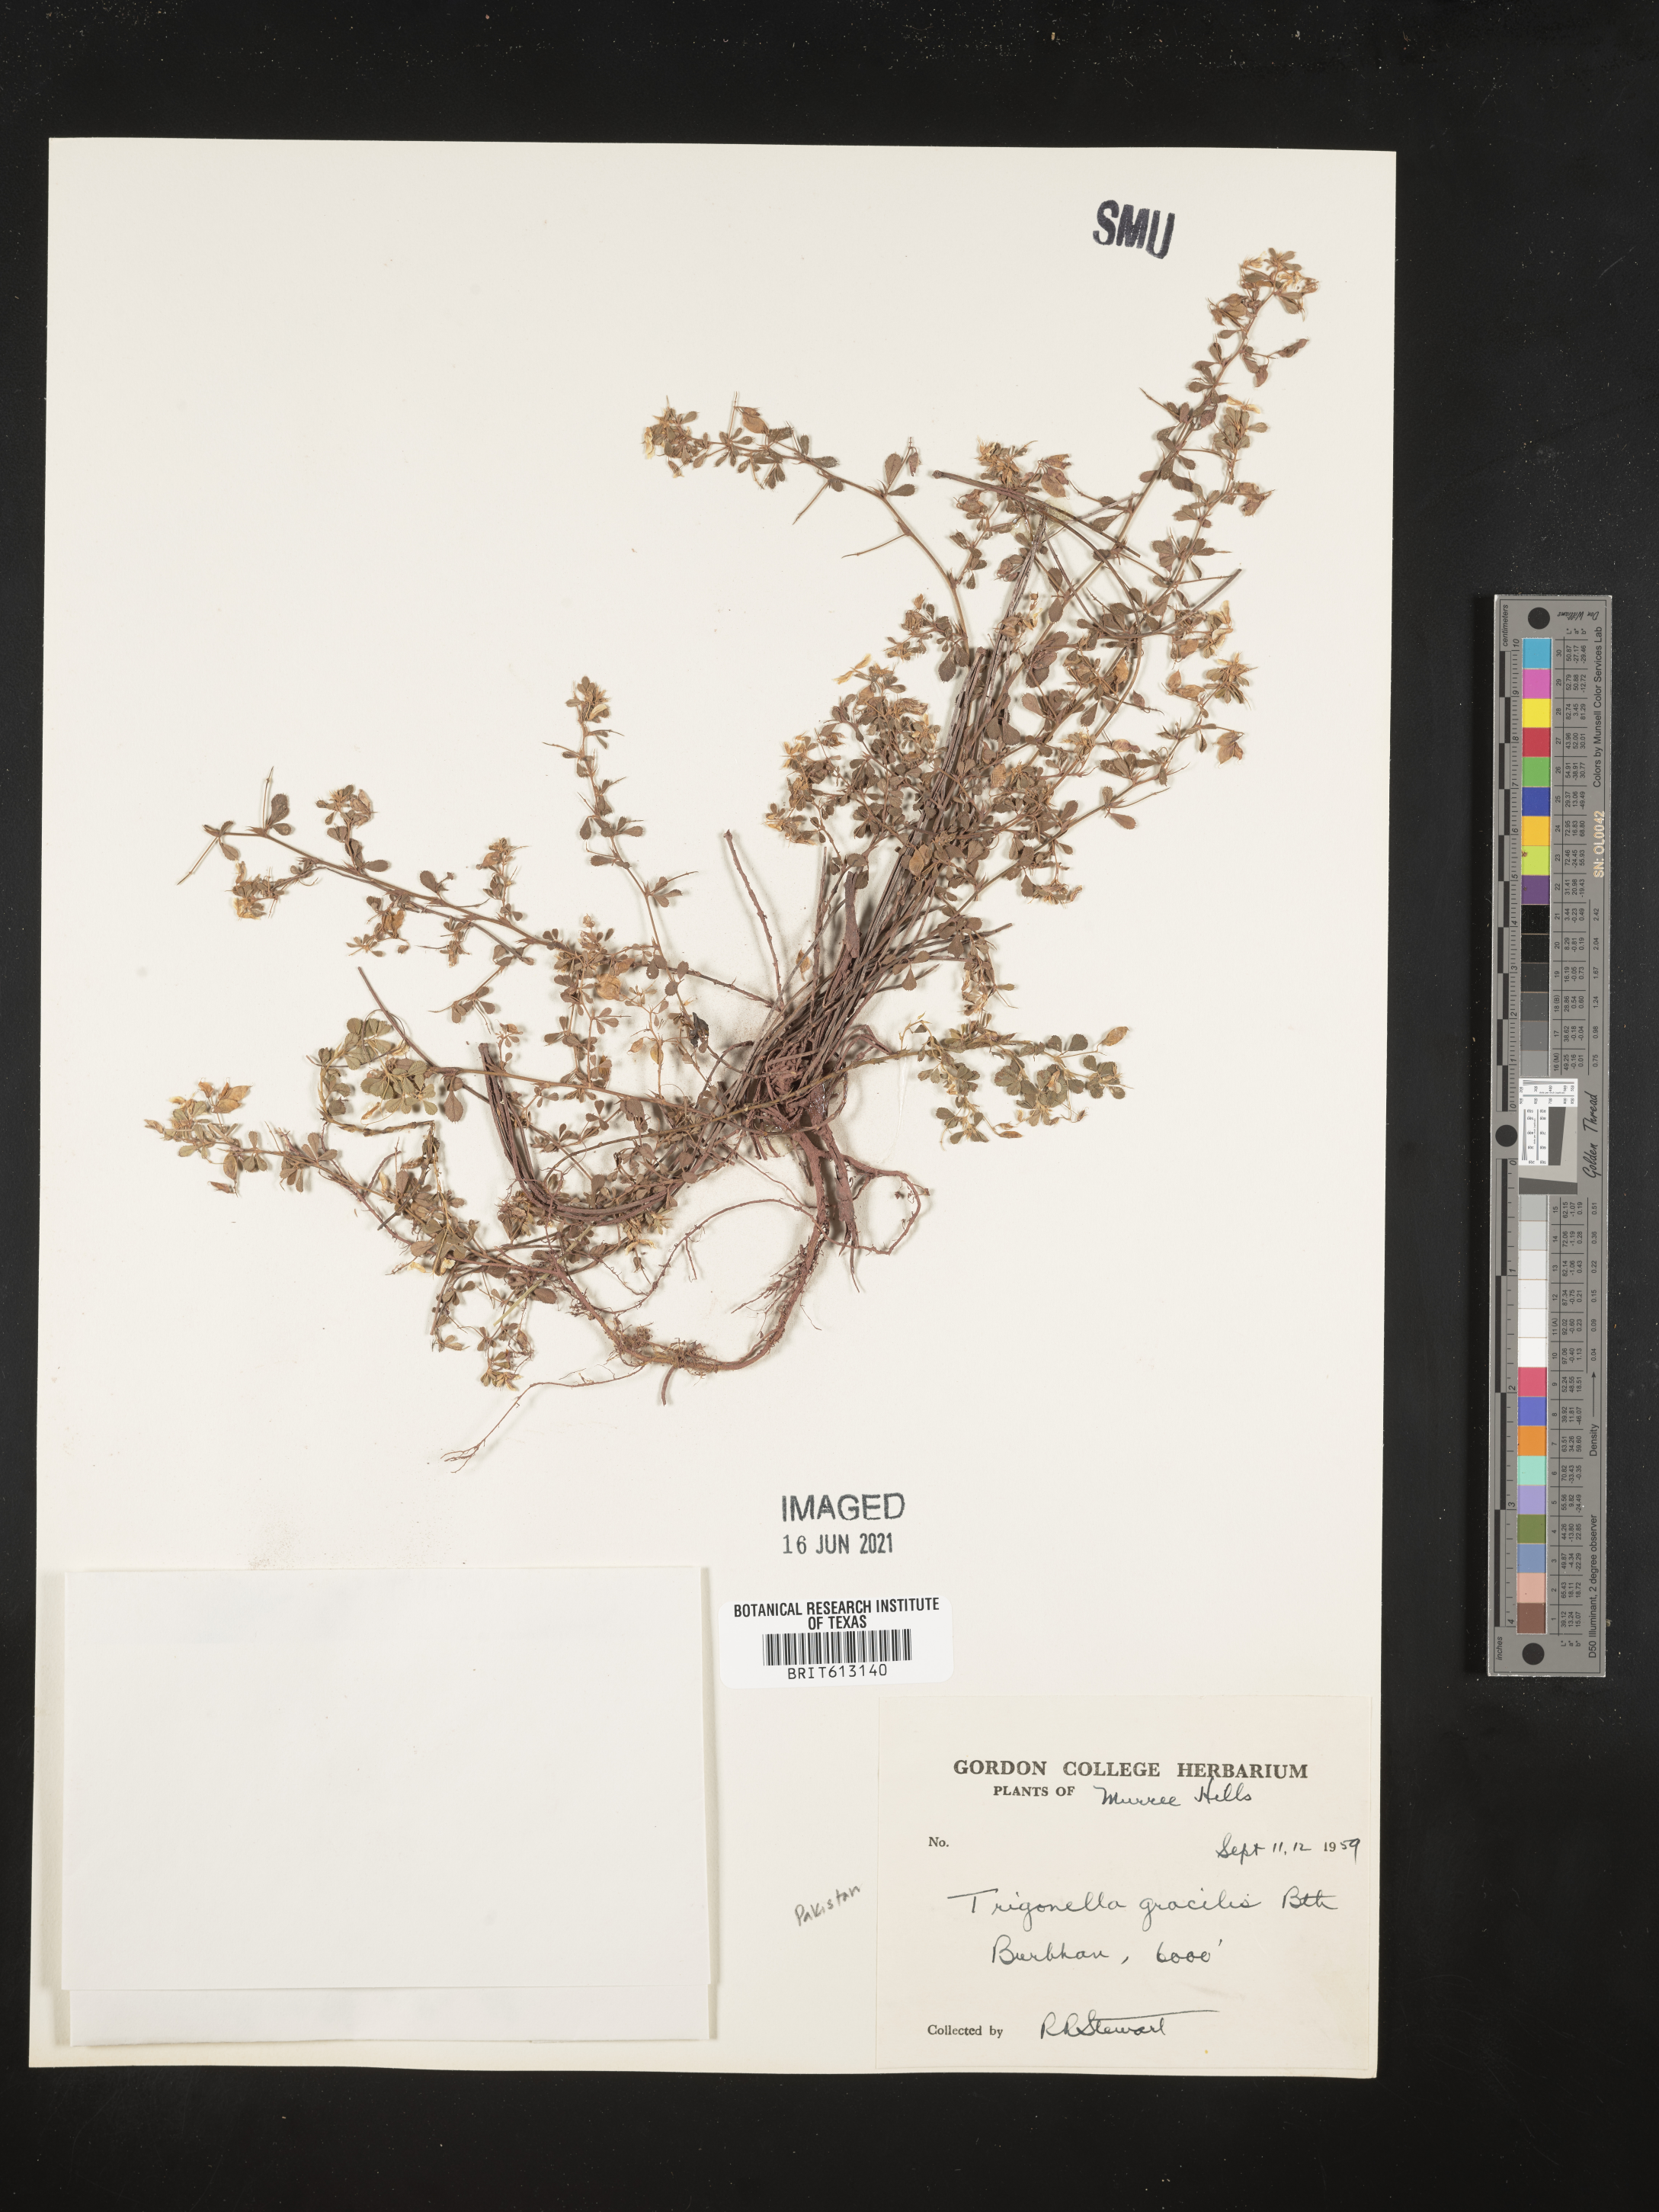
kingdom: Plantae
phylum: Tracheophyta
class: Magnoliopsida
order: Fabales
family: Fabaceae
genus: Trigonella
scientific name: Trigonella gracilis
